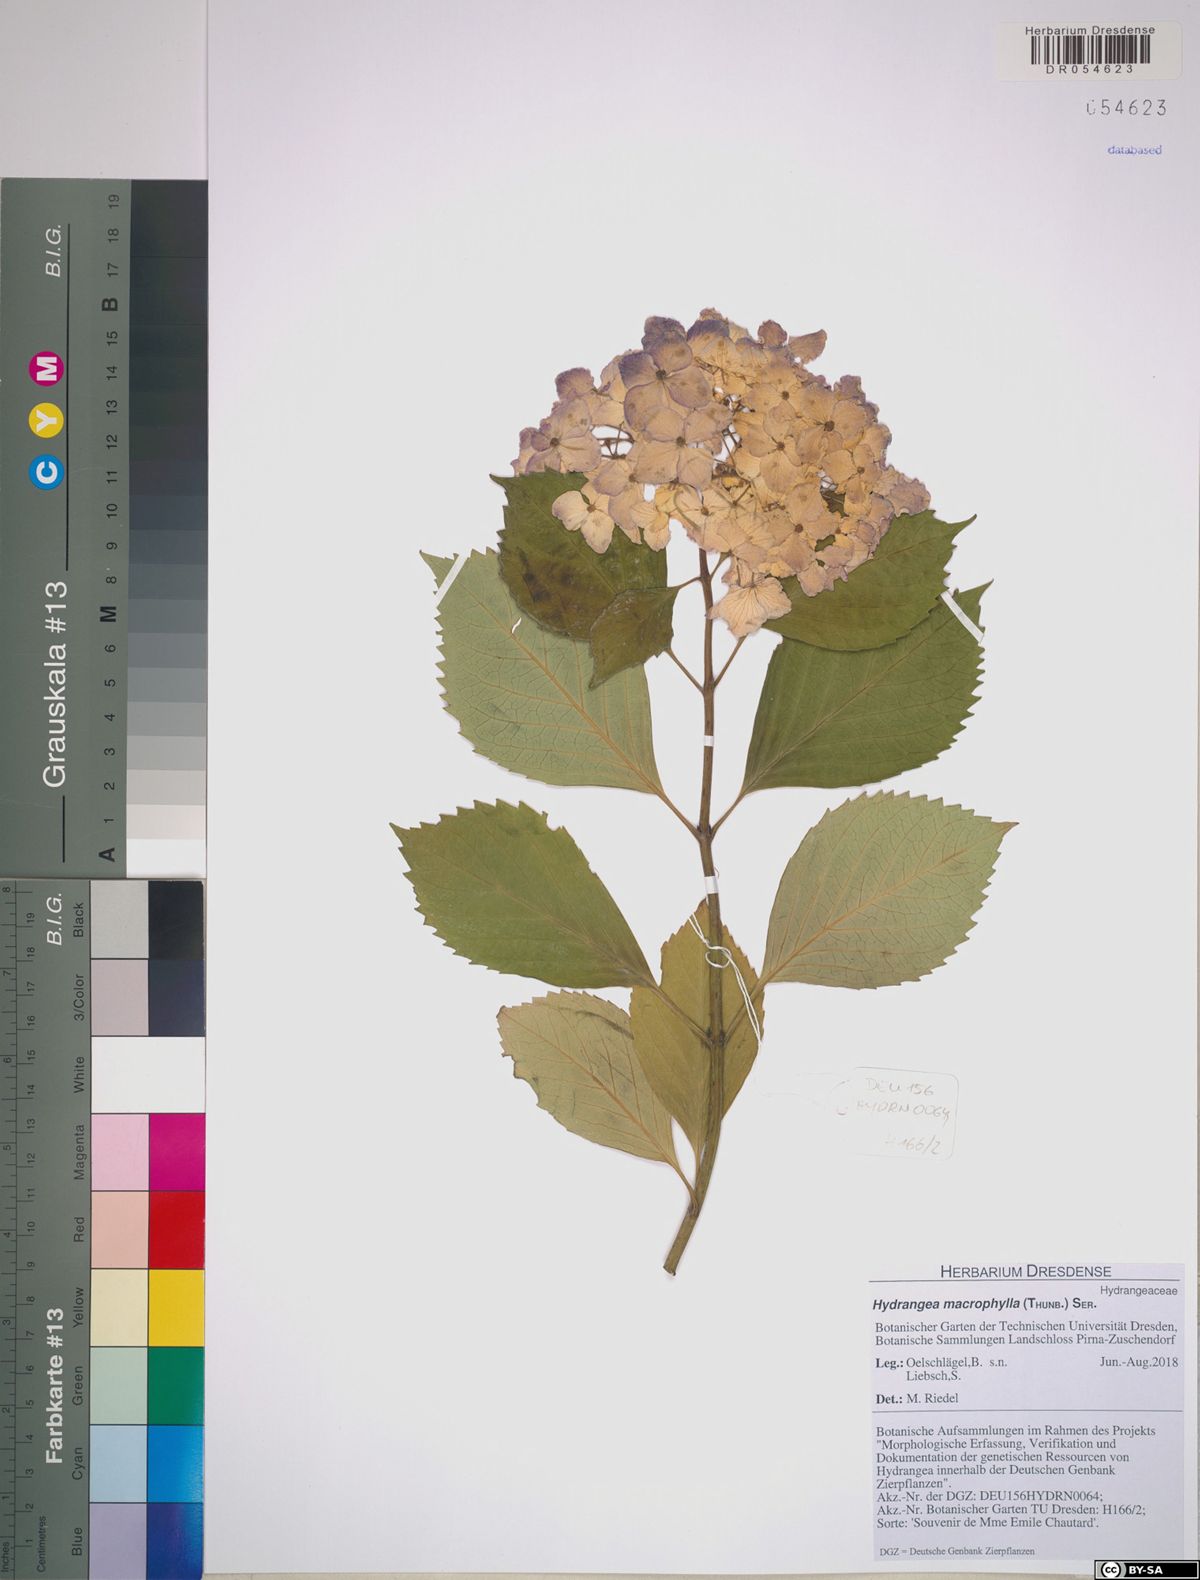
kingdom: Plantae
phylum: Tracheophyta
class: Magnoliopsida
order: Cornales
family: Hydrangeaceae
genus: Hydrangea
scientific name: Hydrangea macrophylla
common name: Hydrangea
